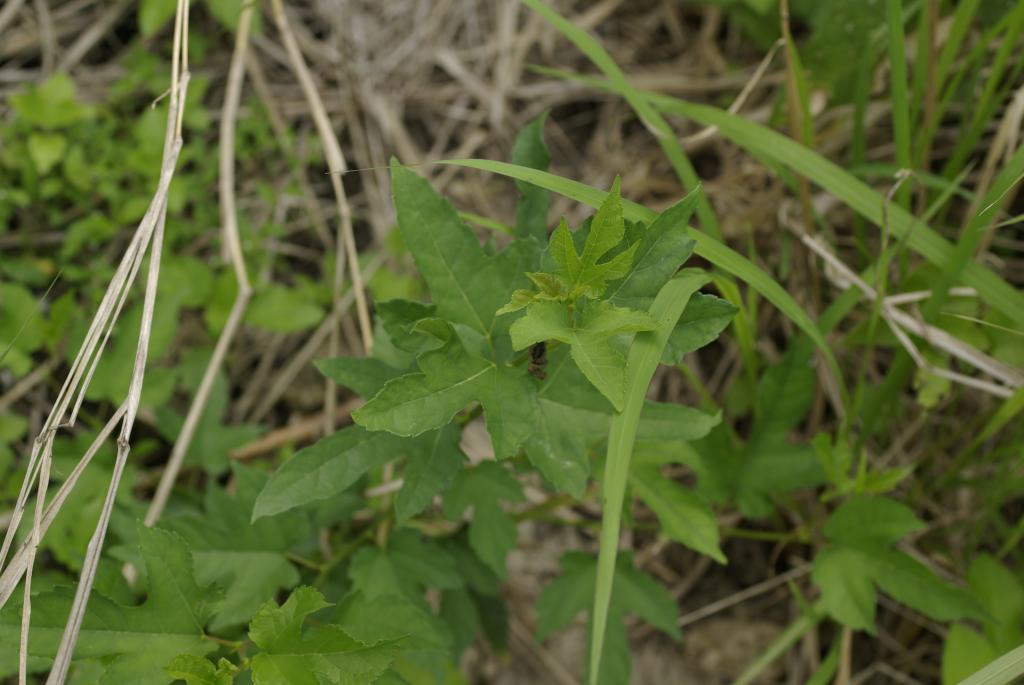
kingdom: Plantae
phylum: Tracheophyta
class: Magnoliopsida
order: Rosales
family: Moraceae
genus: Broussonetia
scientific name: Broussonetia papyrifera
